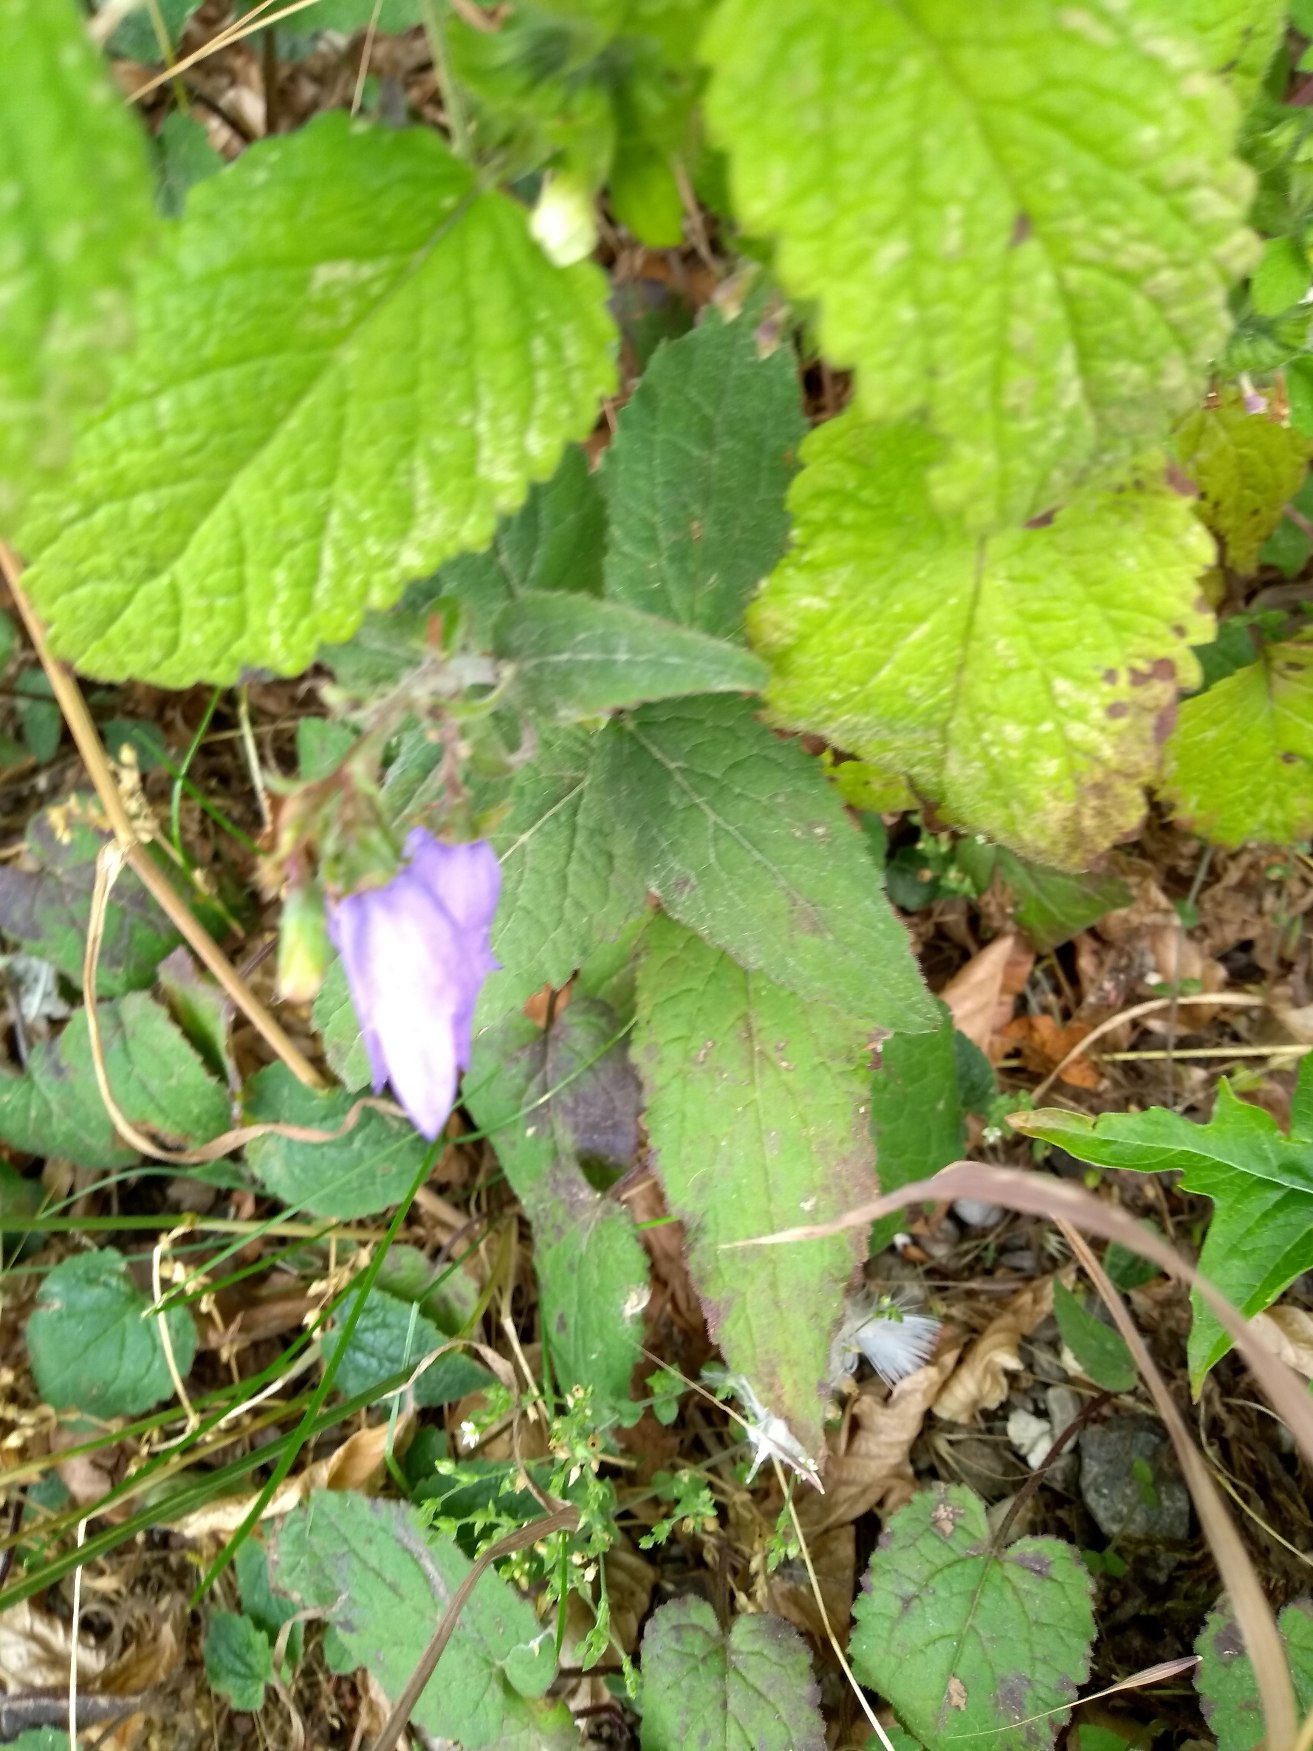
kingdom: Plantae
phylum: Tracheophyta
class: Magnoliopsida
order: Asterales
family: Campanulaceae
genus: Campanula
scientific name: Campanula rapunculoides
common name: Ensidig klokke
